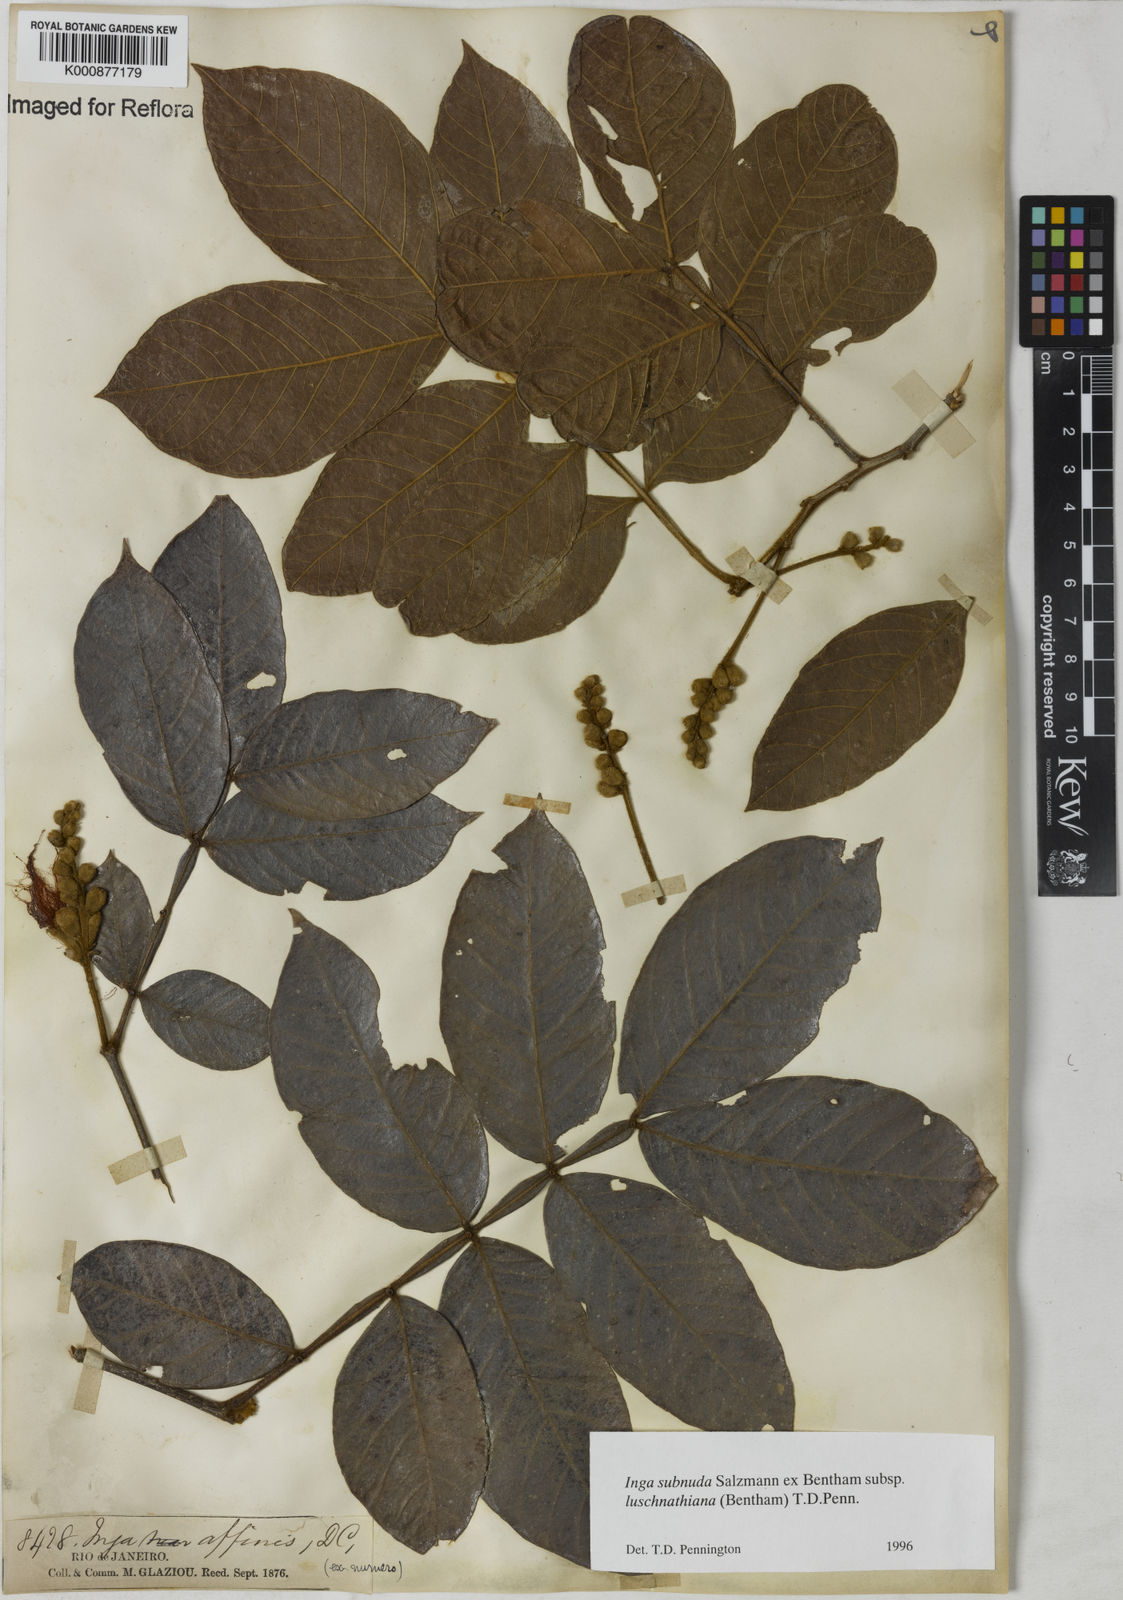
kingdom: Plantae
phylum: Tracheophyta
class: Magnoliopsida
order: Fabales
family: Fabaceae
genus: Inga
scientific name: Inga subnuda
